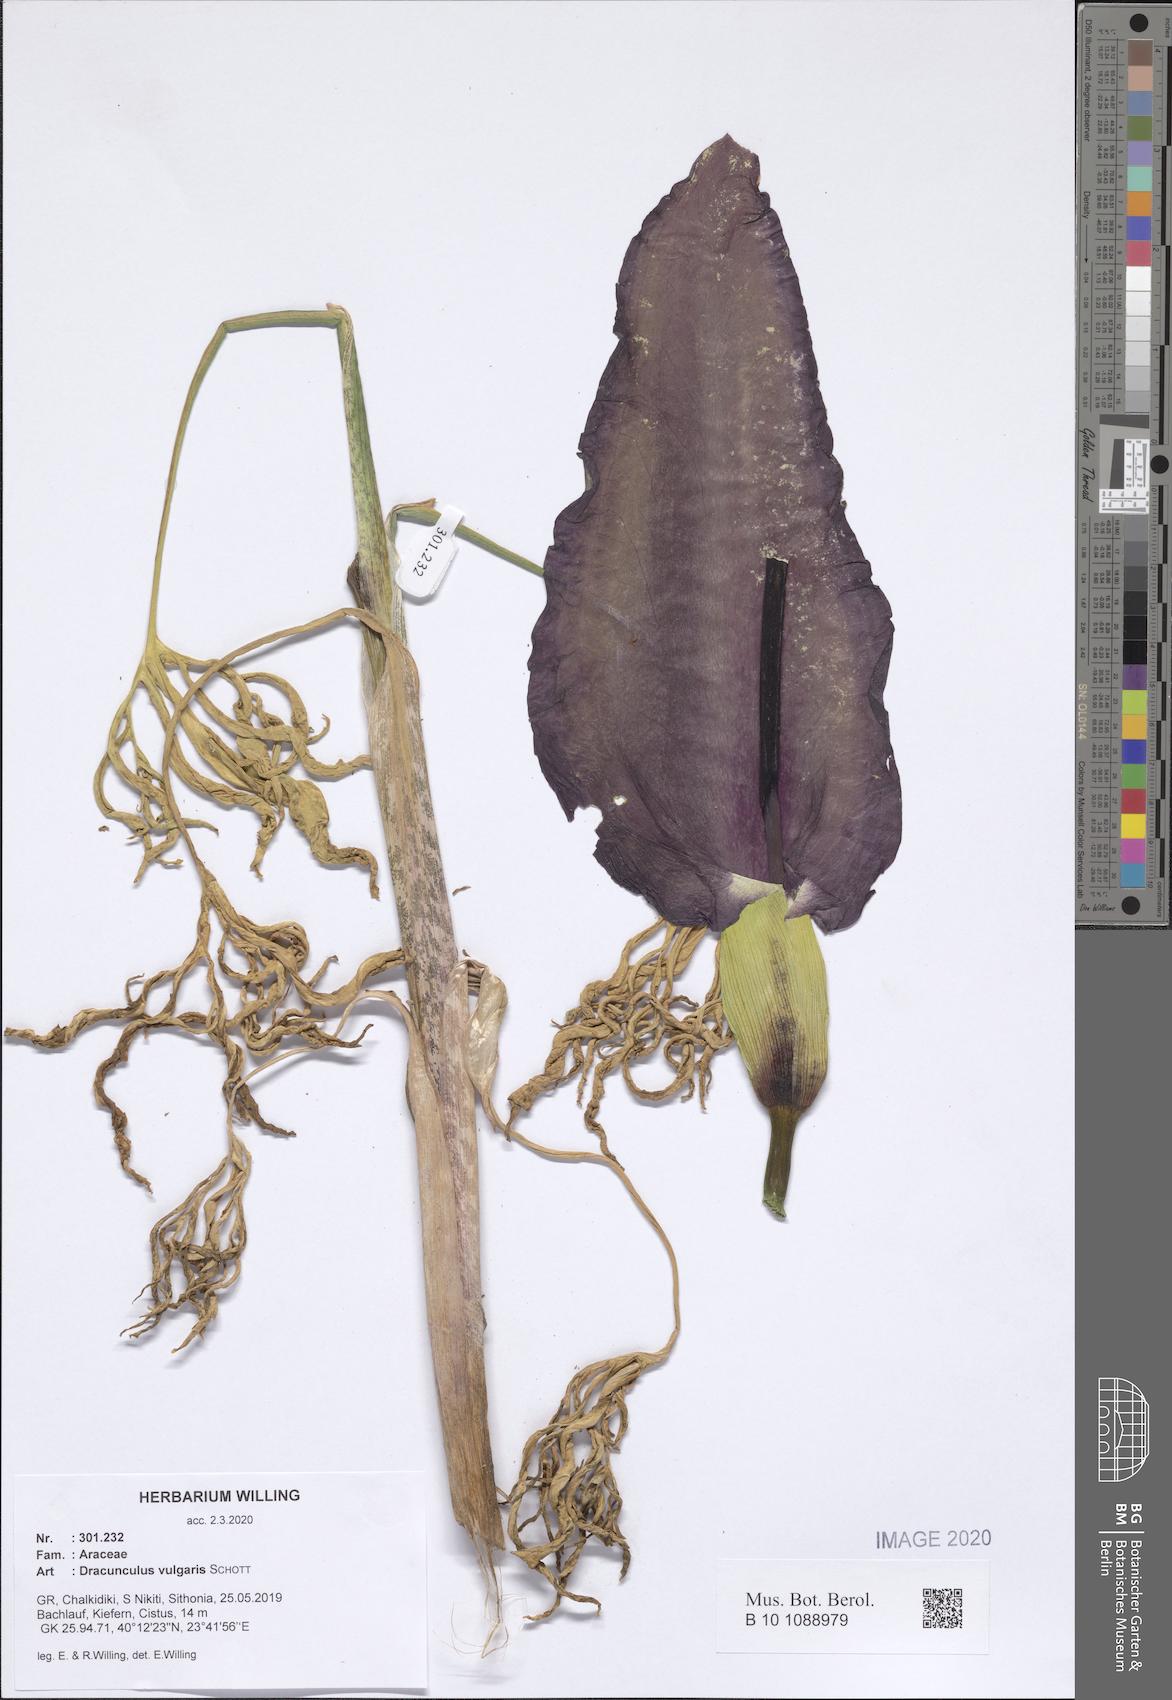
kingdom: Plantae
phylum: Tracheophyta
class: Liliopsida
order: Alismatales
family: Araceae
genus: Dracunculus
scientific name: Dracunculus vulgaris
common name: Dragon arum
